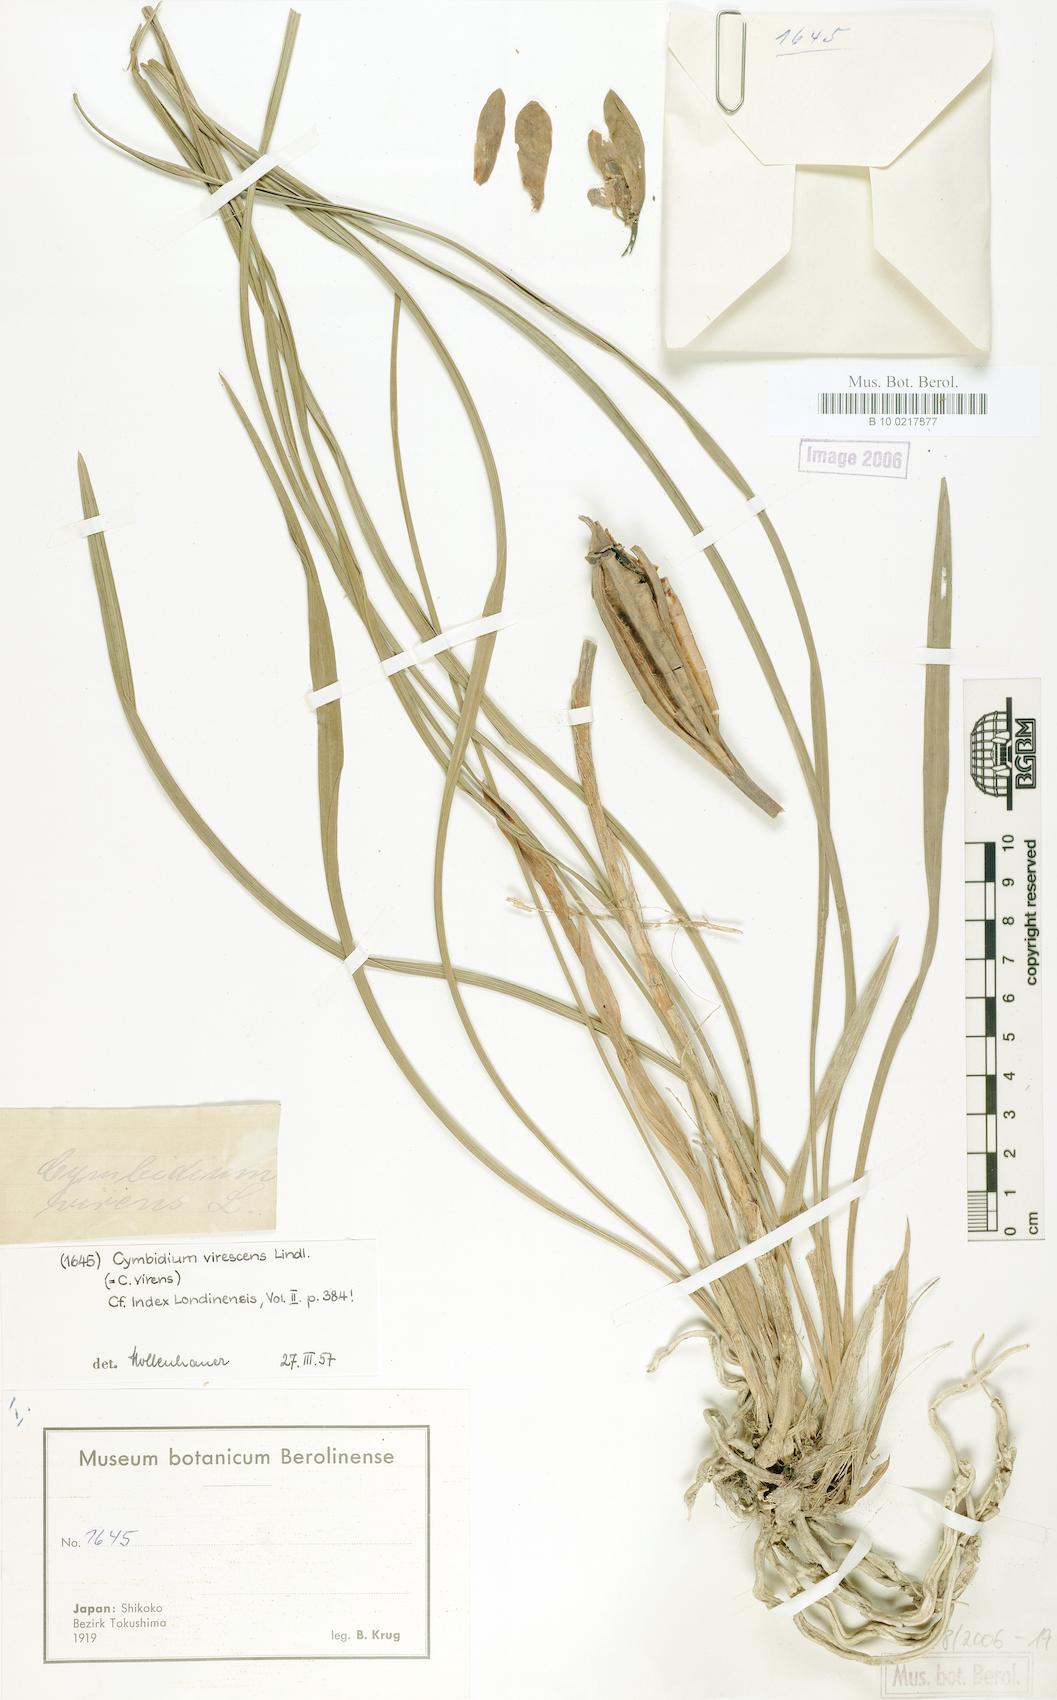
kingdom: Plantae
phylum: Tracheophyta
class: Liliopsida
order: Asparagales
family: Orchidaceae
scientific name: Orchidaceae
